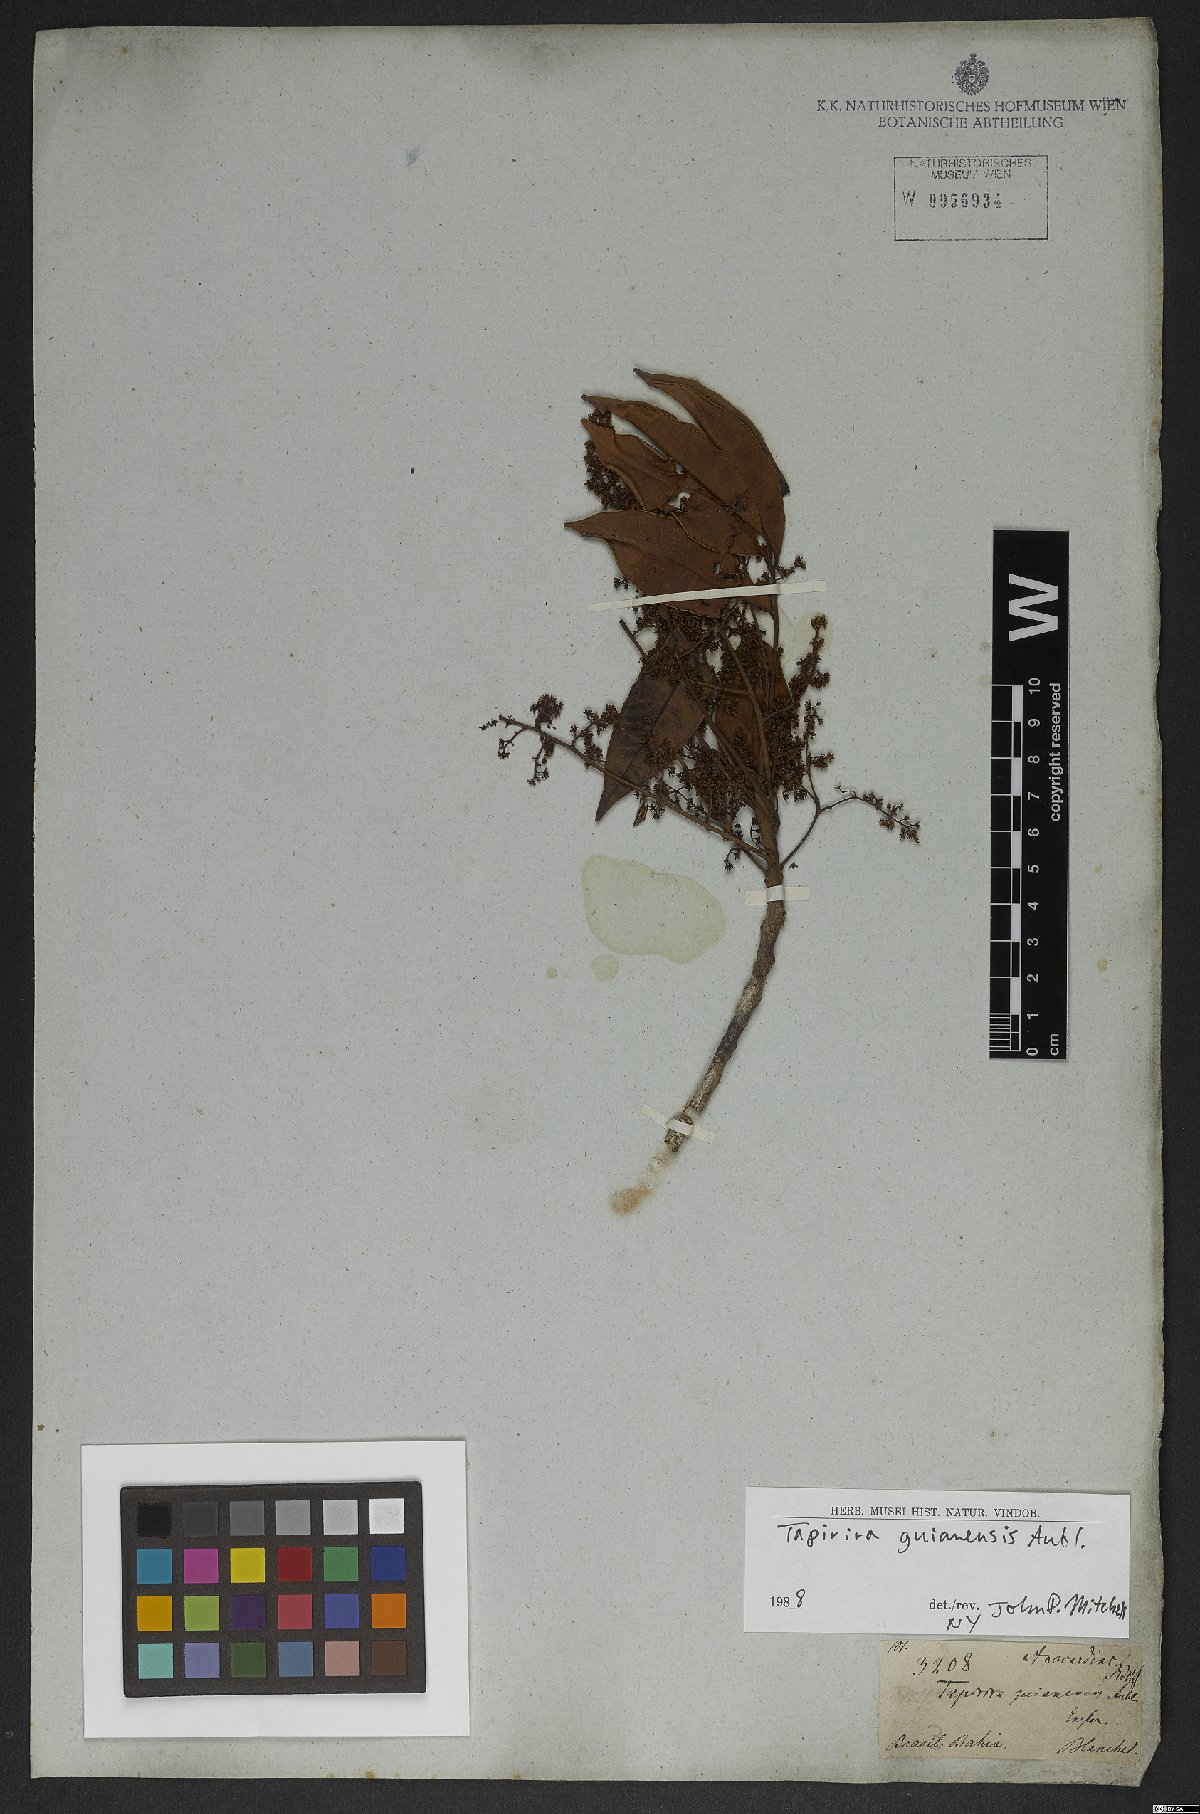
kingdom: Plantae
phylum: Tracheophyta
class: Magnoliopsida
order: Sapindales
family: Anacardiaceae
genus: Tapirira
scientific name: Tapirira guianensis
